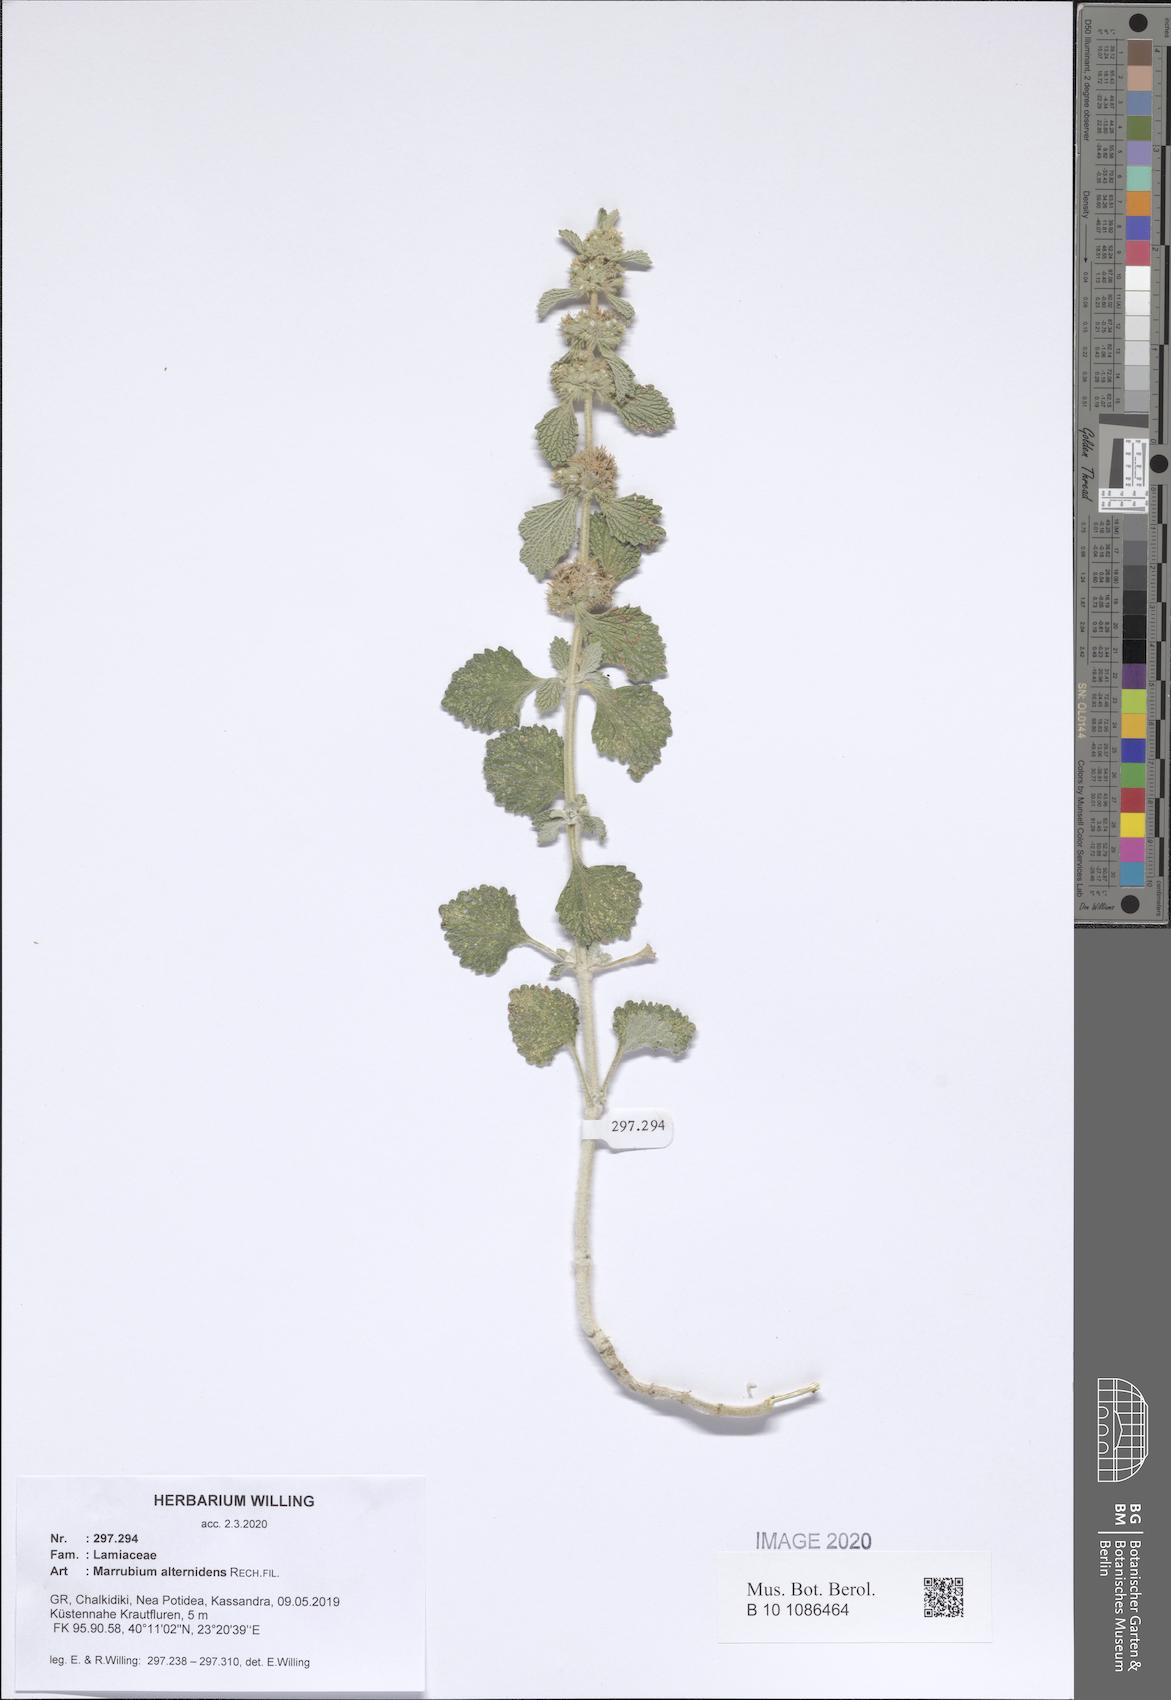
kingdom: Plantae
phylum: Tracheophyta
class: Magnoliopsida
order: Lamiales
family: Lamiaceae
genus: Marrubium
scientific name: Marrubium vulgare
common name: Horehound
